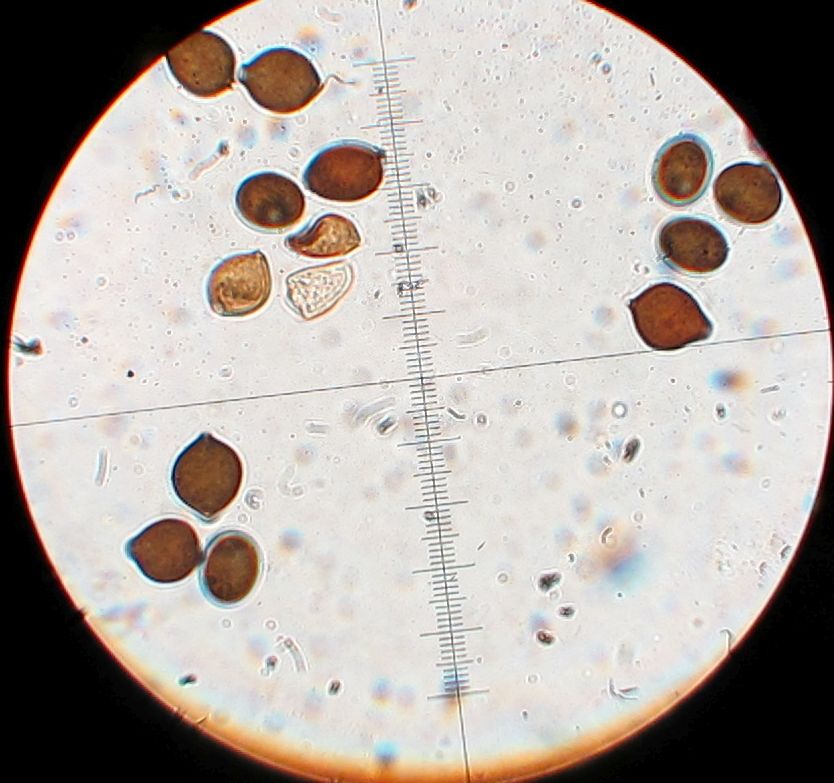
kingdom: Fungi
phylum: Basidiomycota
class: Agaricomycetes
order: Agaricales
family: Bolbitiaceae
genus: Panaeolus
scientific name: Panaeolus papilionaceus
